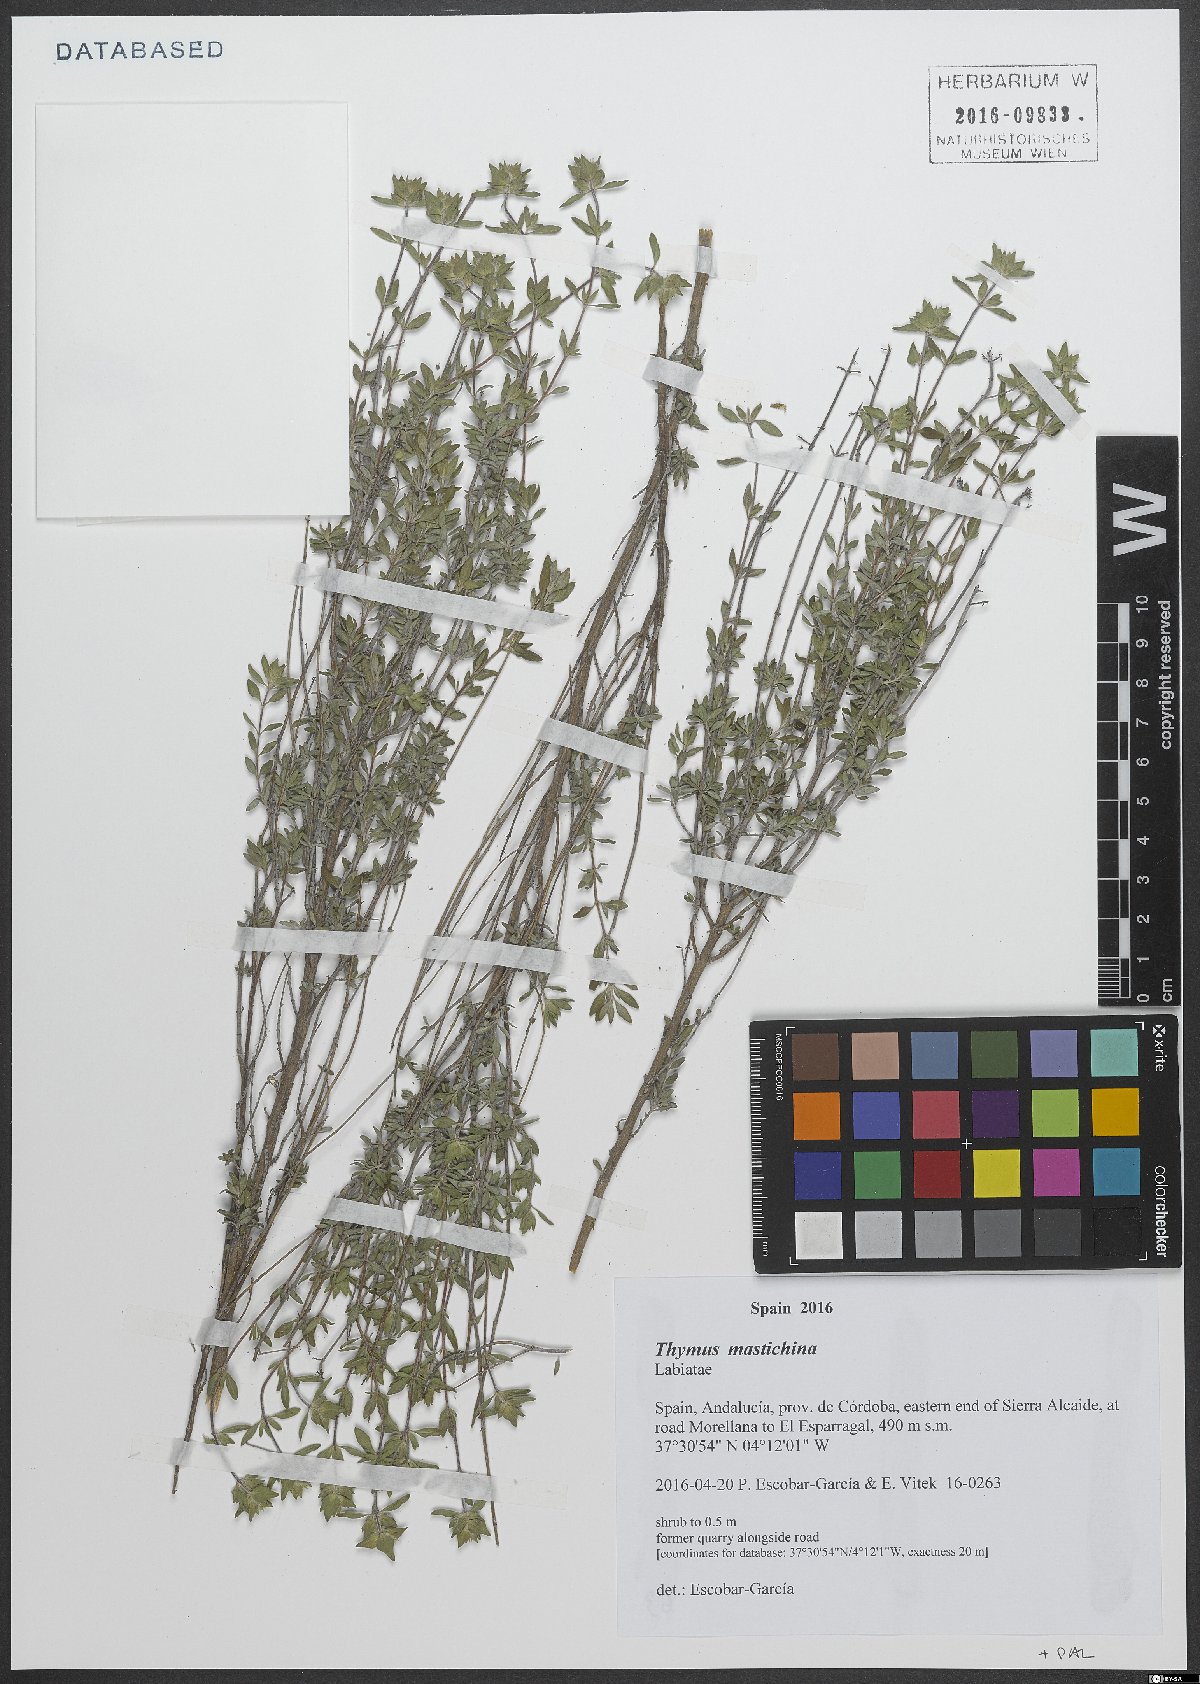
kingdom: Plantae
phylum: Tracheophyta
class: Magnoliopsida
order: Lamiales
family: Lamiaceae
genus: Thymus
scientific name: Thymus mastichina
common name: Mastic thyme
